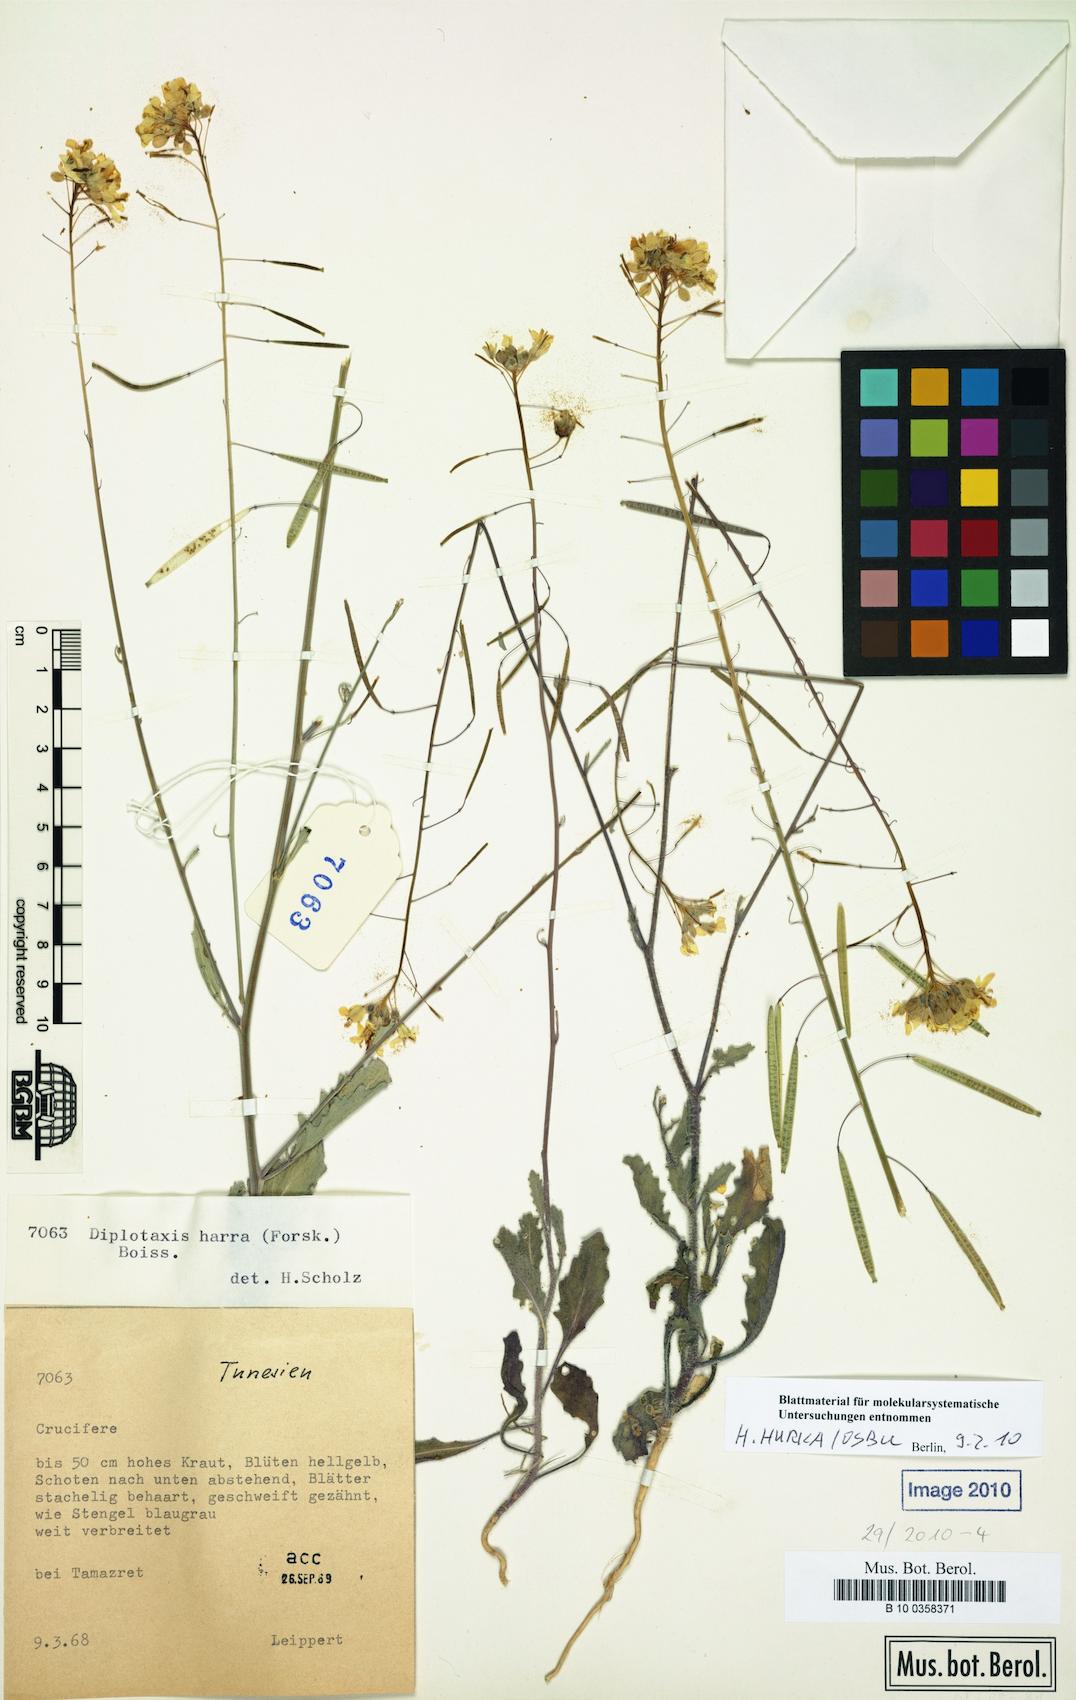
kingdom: Plantae
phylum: Tracheophyta
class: Magnoliopsida
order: Brassicales
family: Brassicaceae
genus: Diplotaxis
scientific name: Diplotaxis harra
